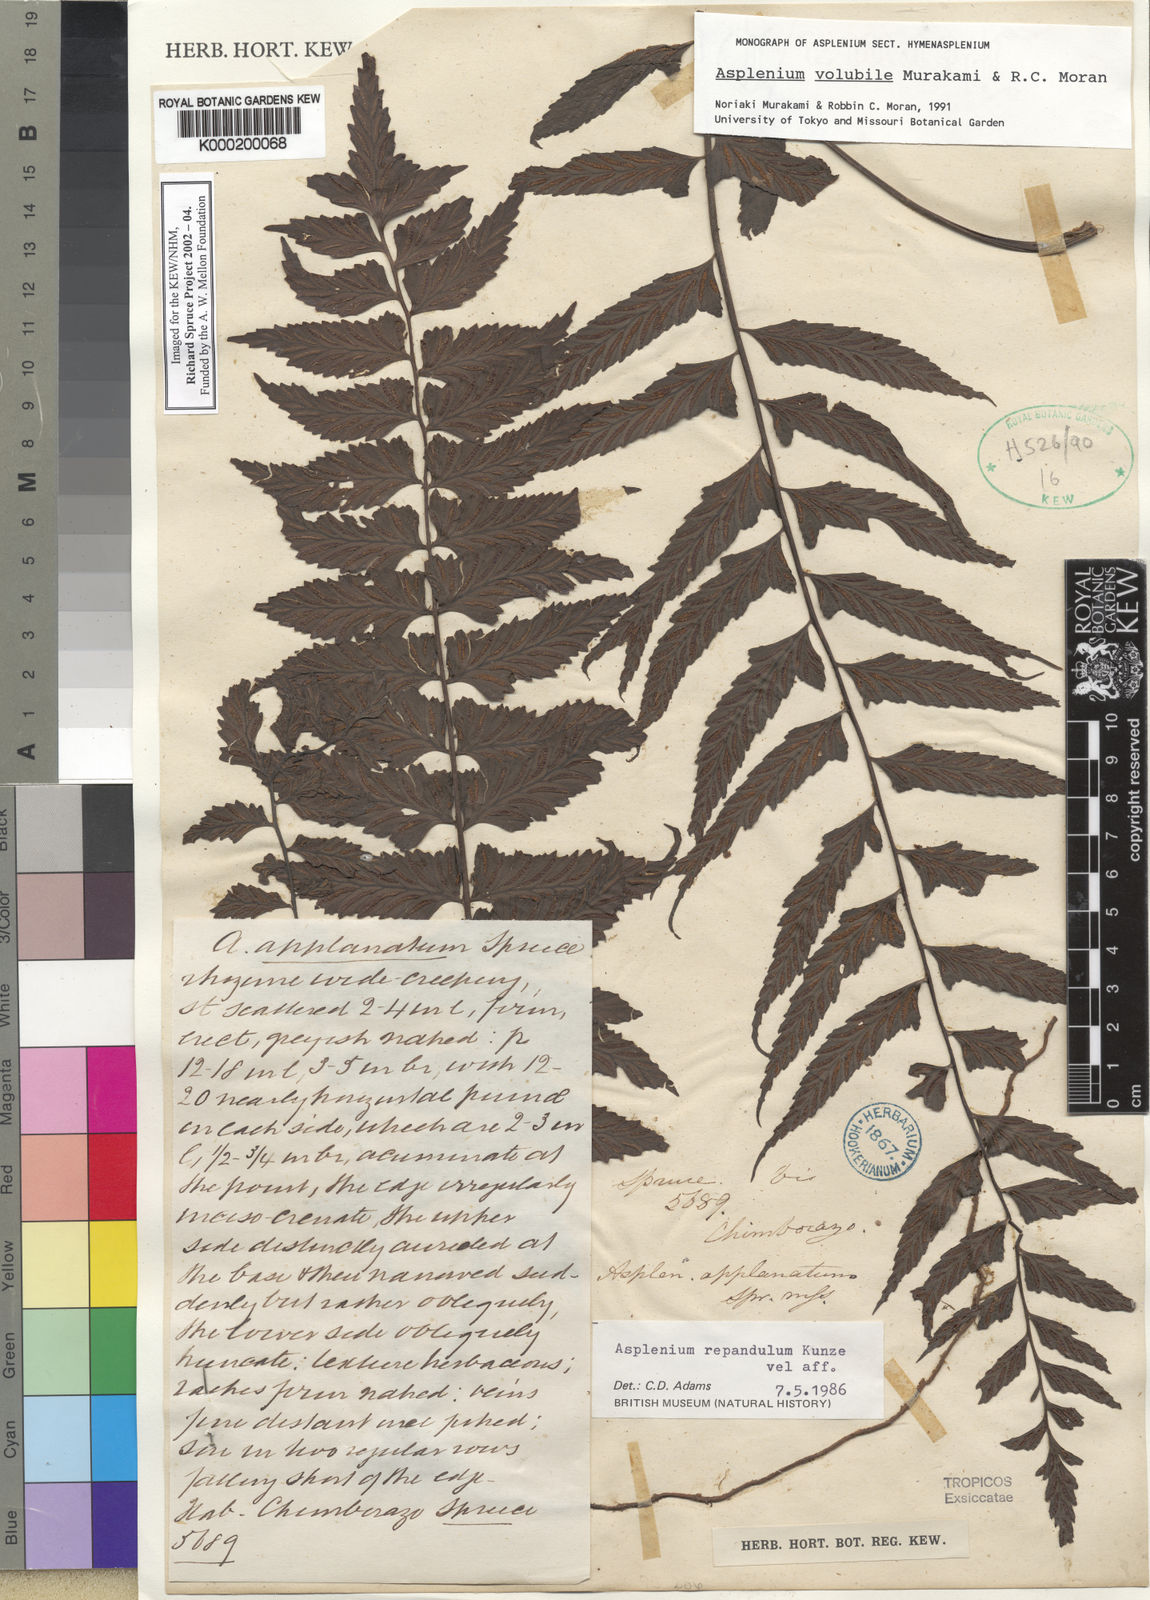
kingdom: Plantae
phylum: Tracheophyta
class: Polypodiopsida
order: Polypodiales
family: Aspleniaceae
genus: Hymenasplenium
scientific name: Hymenasplenium volubile
